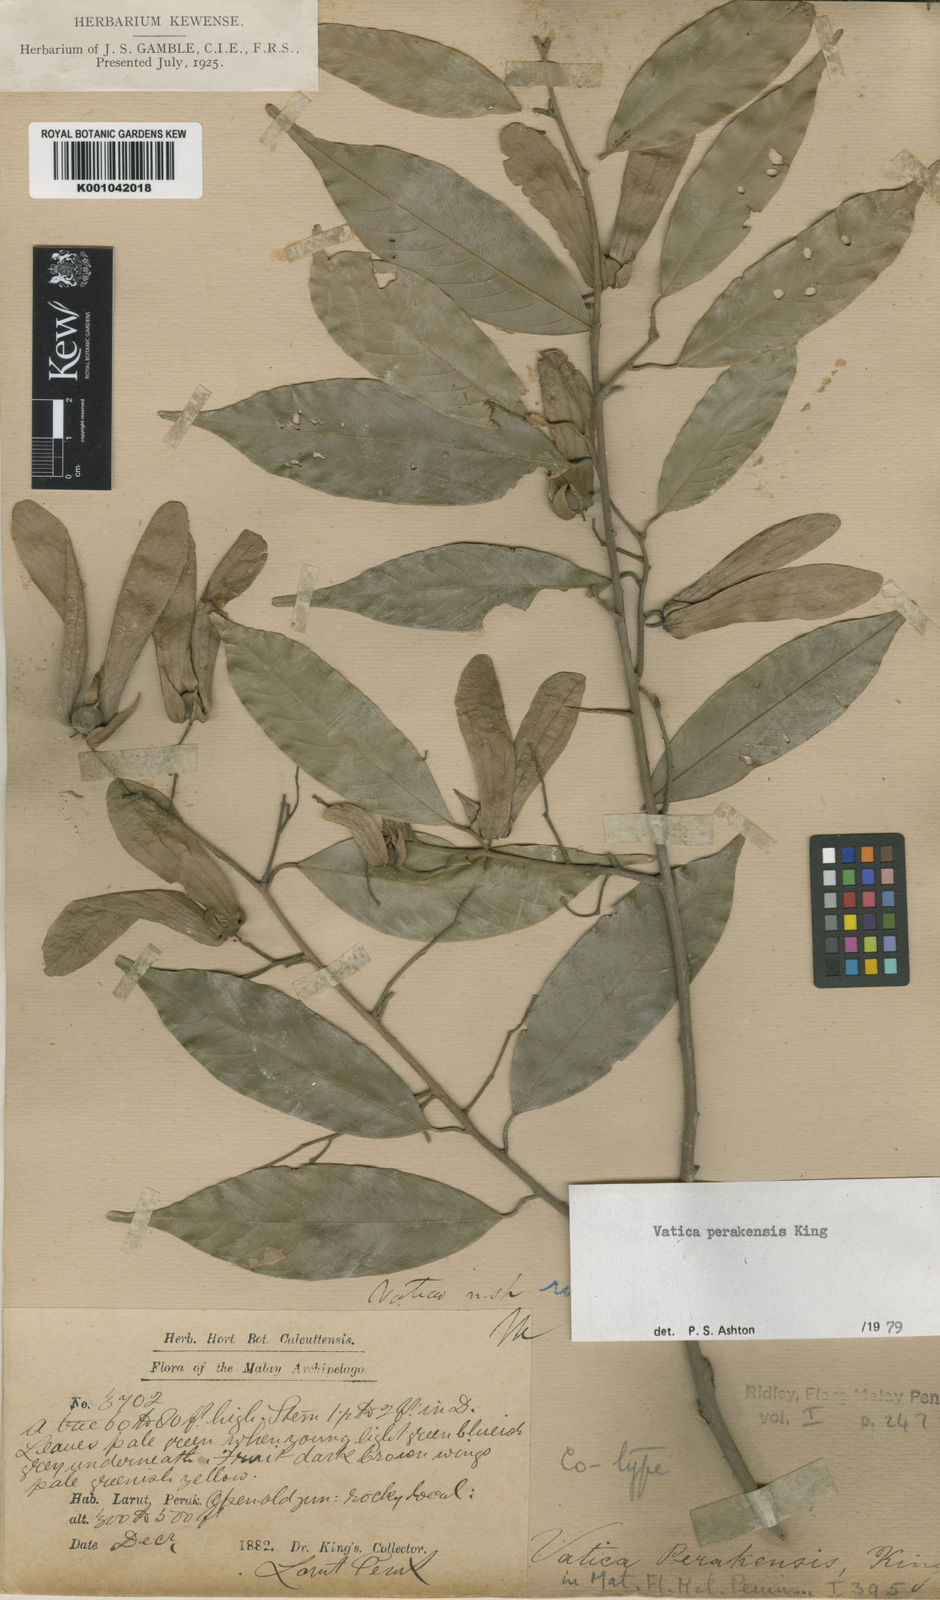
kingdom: Plantae
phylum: Tracheophyta
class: Magnoliopsida
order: Malvales
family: Dipterocarpaceae
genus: Vatica
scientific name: Vatica perakensis
